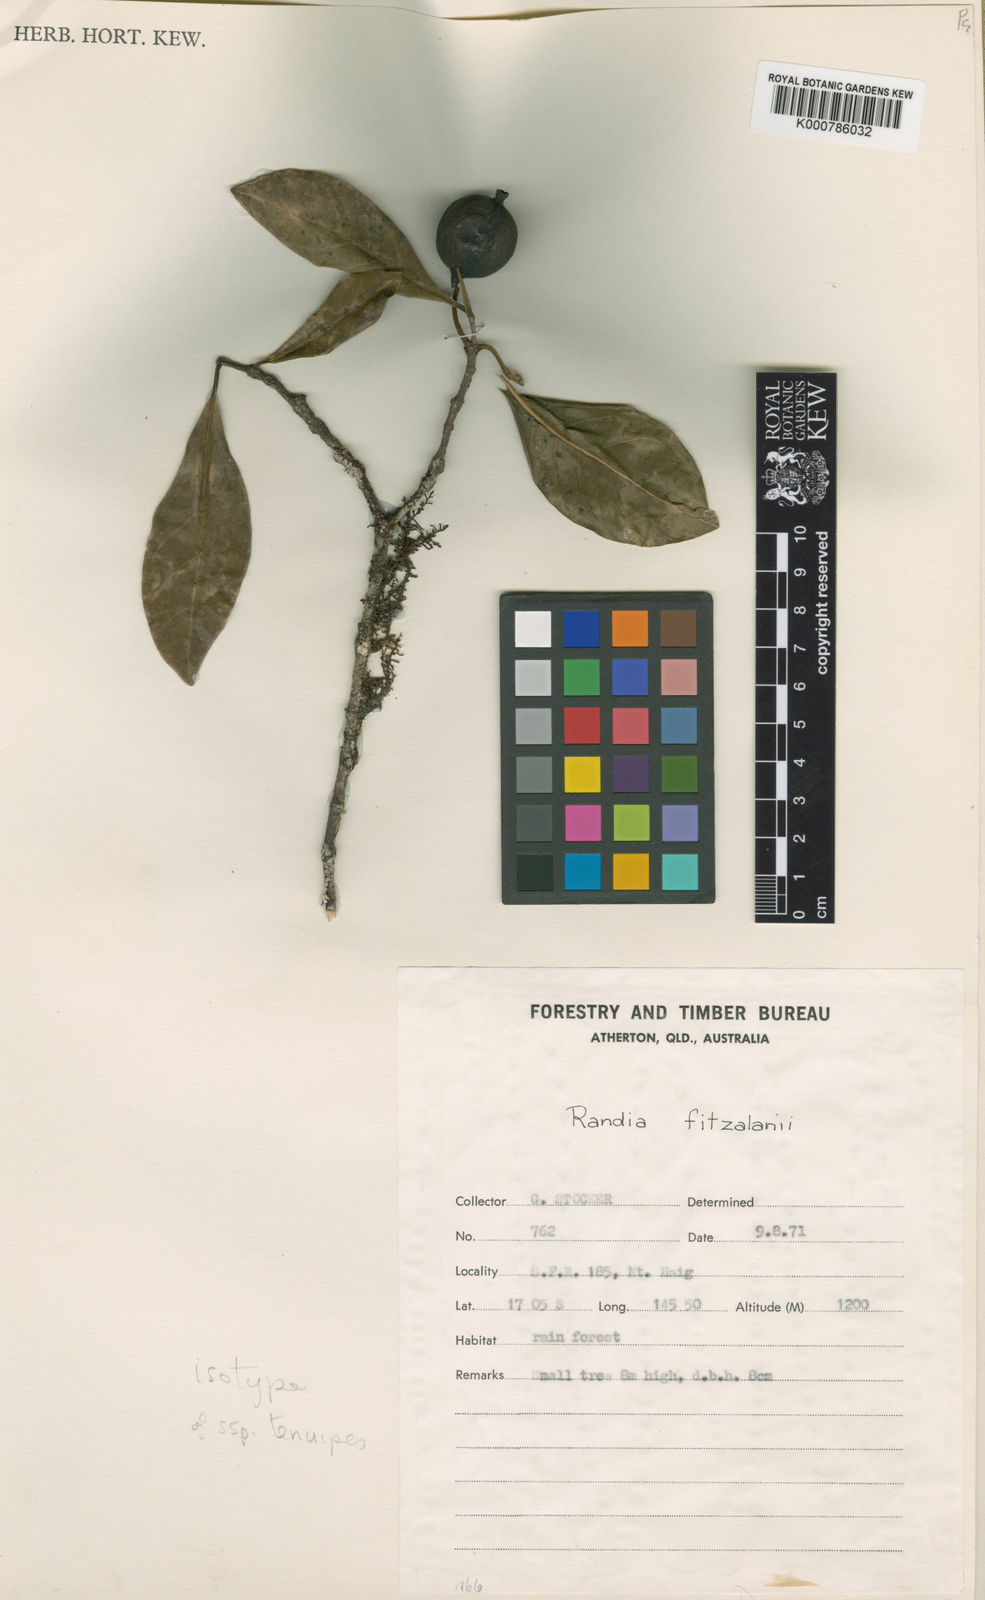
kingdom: Plantae
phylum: Tracheophyta
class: Magnoliopsida
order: Gentianales
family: Rubiaceae
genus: Atractocarpus
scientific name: Atractocarpus fitzalanii
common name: Randia
